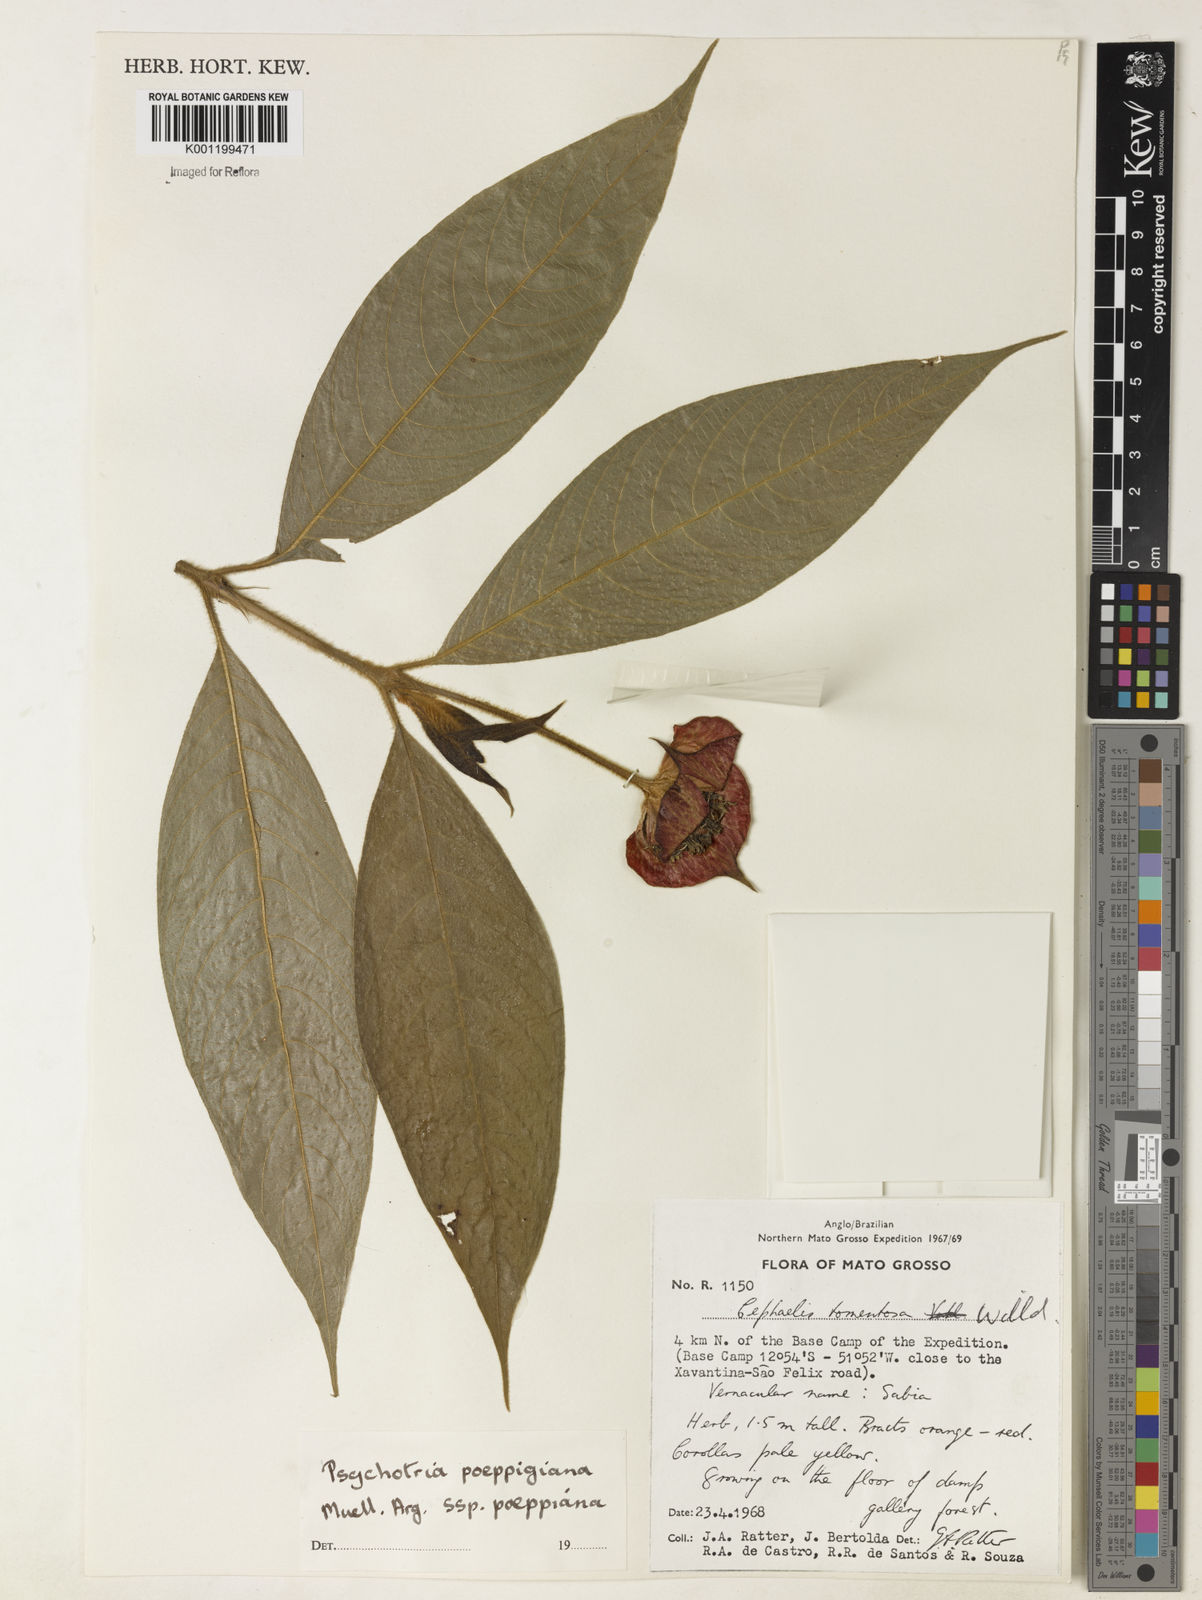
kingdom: Plantae
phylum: Tracheophyta
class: Magnoliopsida
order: Gentianales
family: Rubiaceae
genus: Psychotria
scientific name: Psychotria
